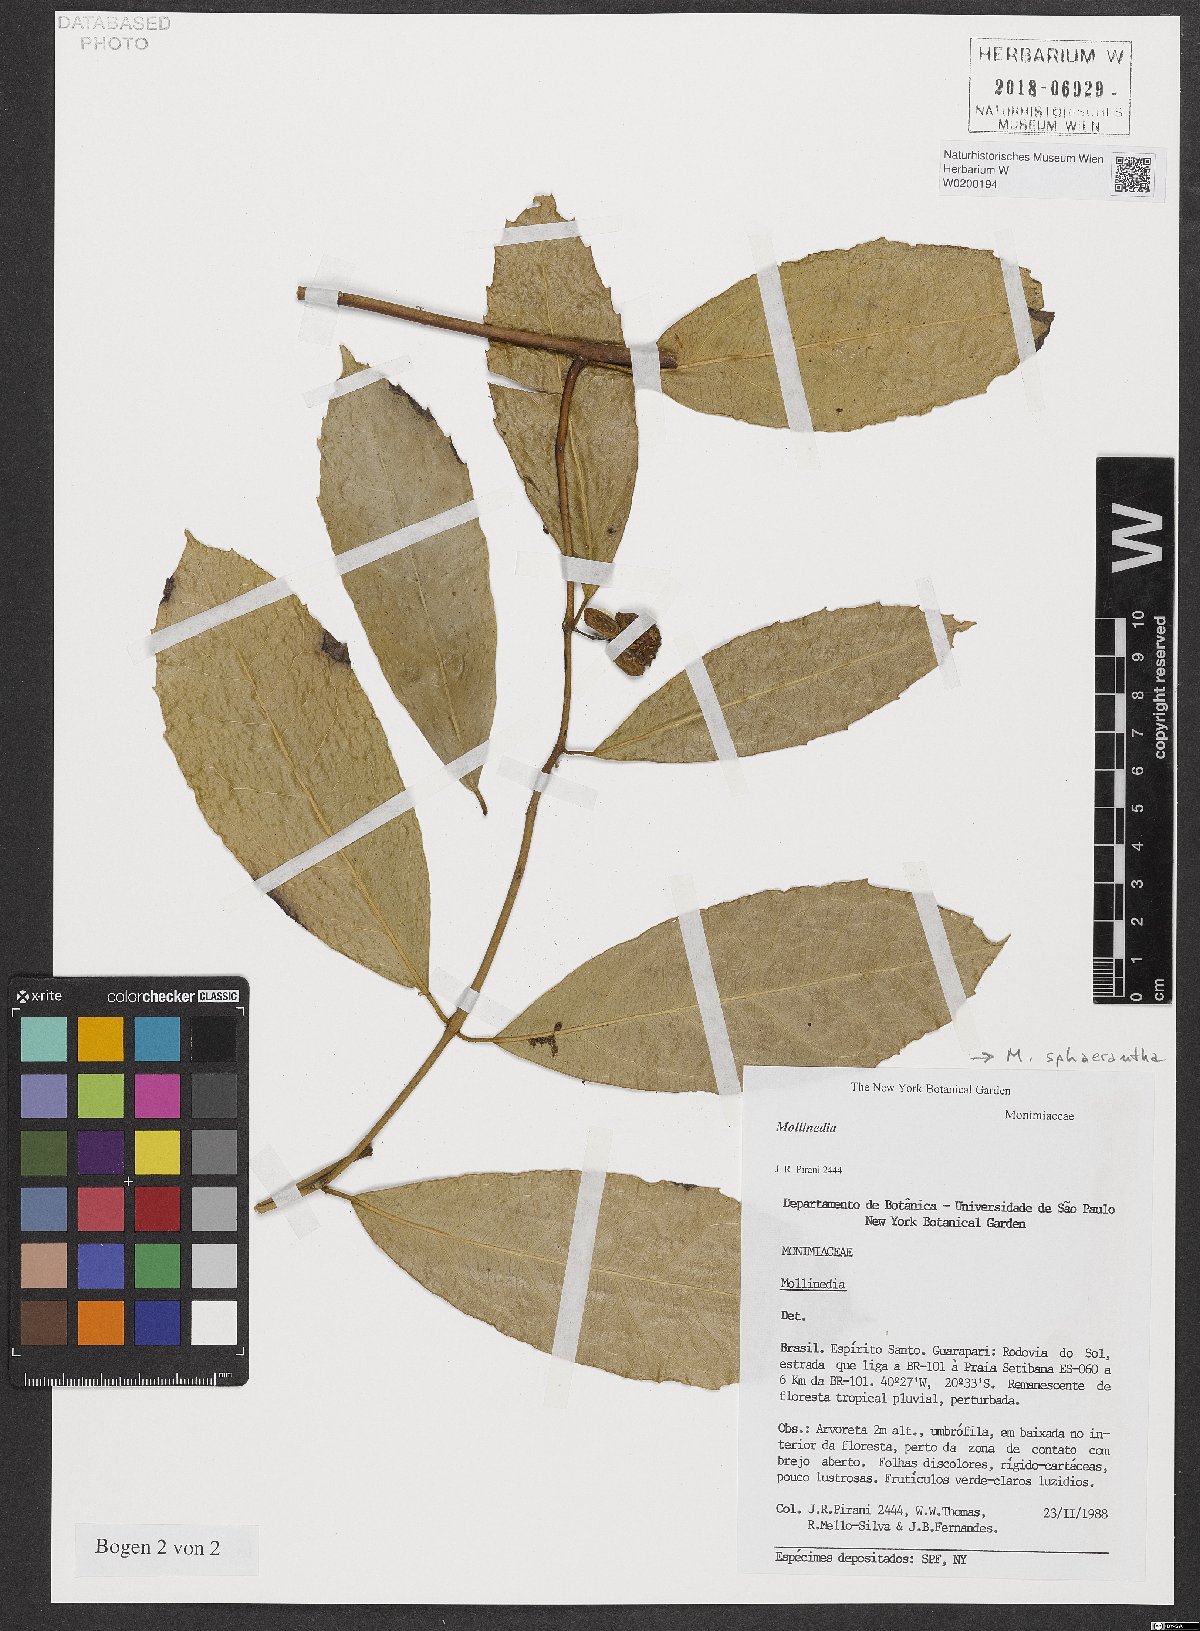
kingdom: Plantae
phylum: Tracheophyta
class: Magnoliopsida
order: Laurales
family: Monimiaceae
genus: Mollinedia
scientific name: Mollinedia glabra
